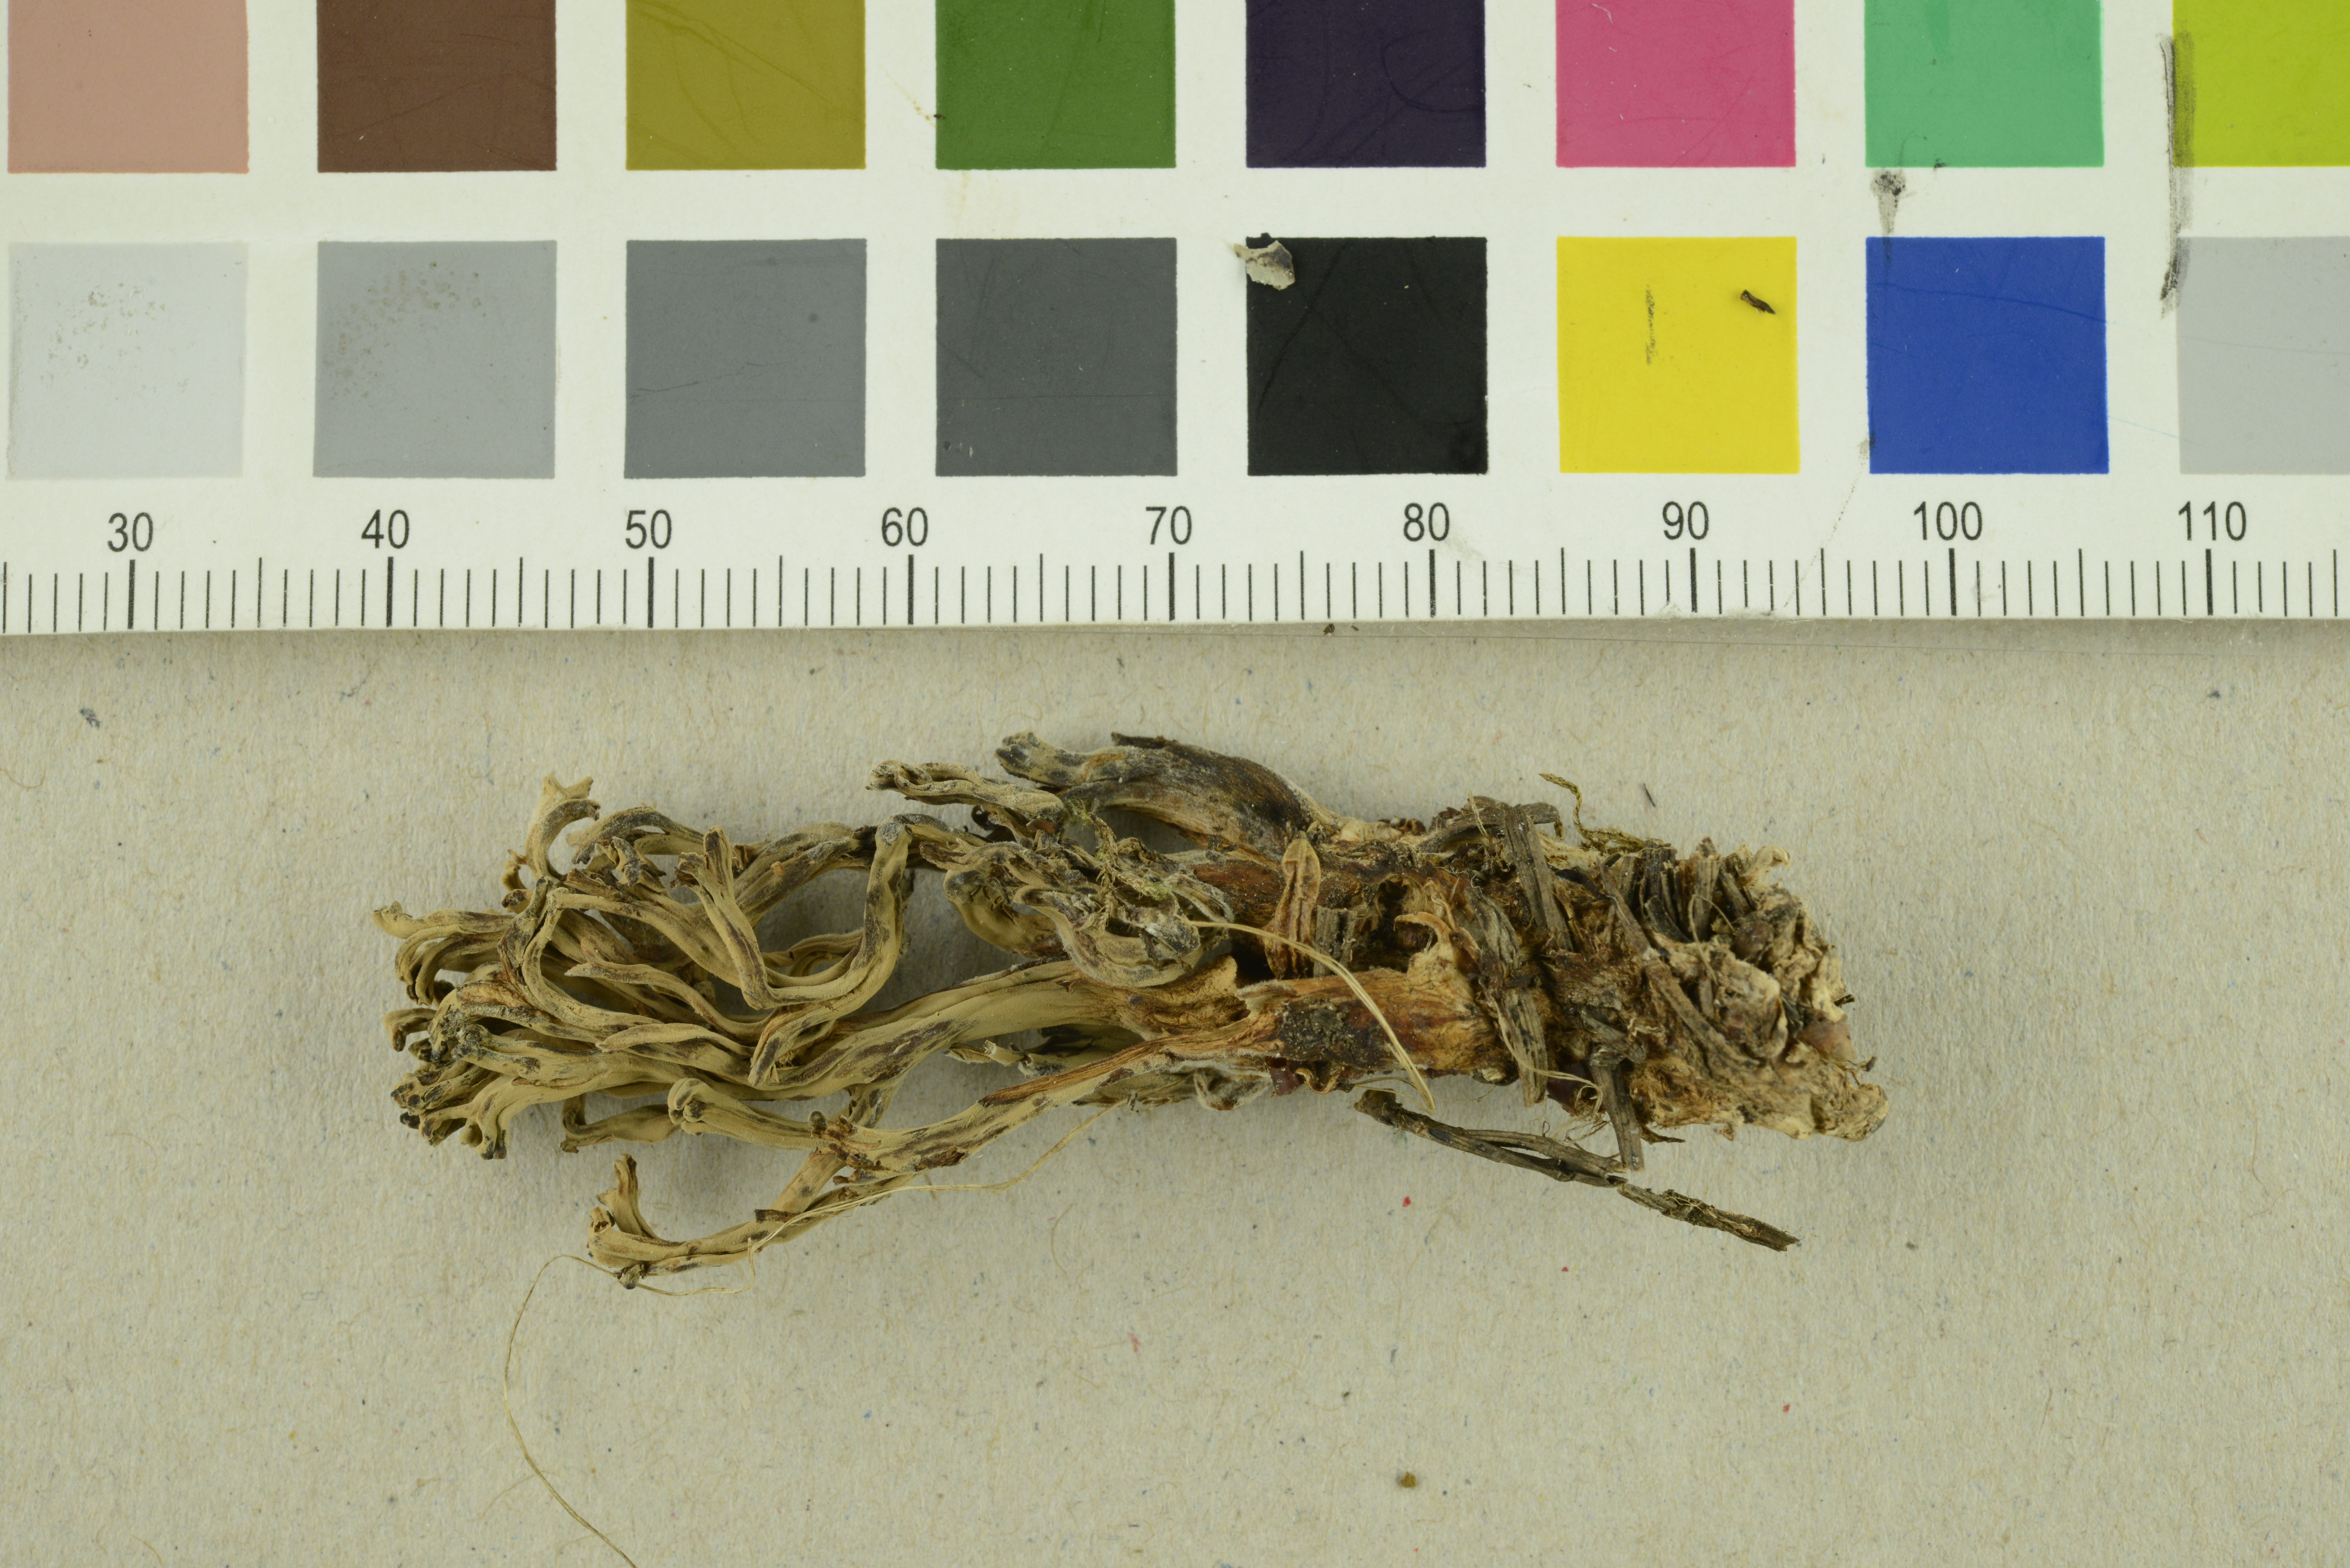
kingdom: Fungi
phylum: Basidiomycota
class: Agaricomycetes
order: Gomphales
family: Gomphaceae
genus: Ramaria
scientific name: Ramaria testaceoflava
